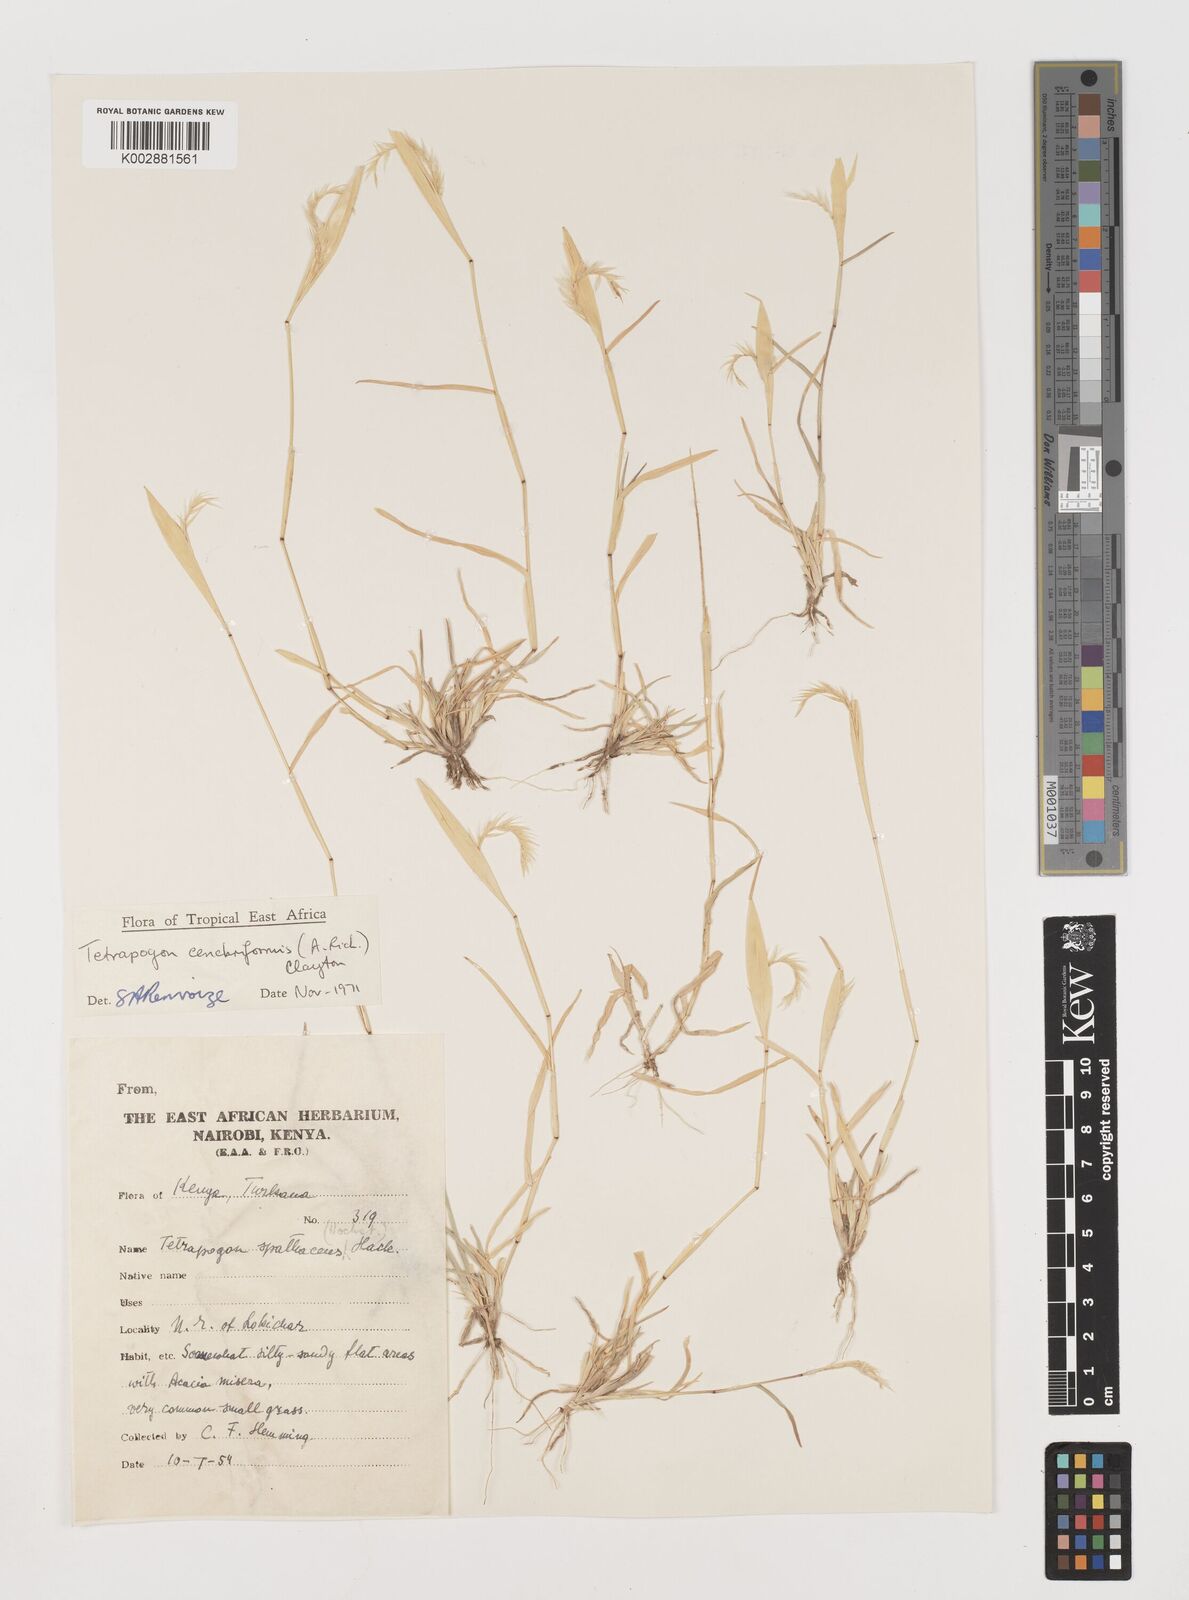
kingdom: Plantae
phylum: Tracheophyta
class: Liliopsida
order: Poales
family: Poaceae
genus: Tetrapogon
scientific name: Tetrapogon cenchriformis
